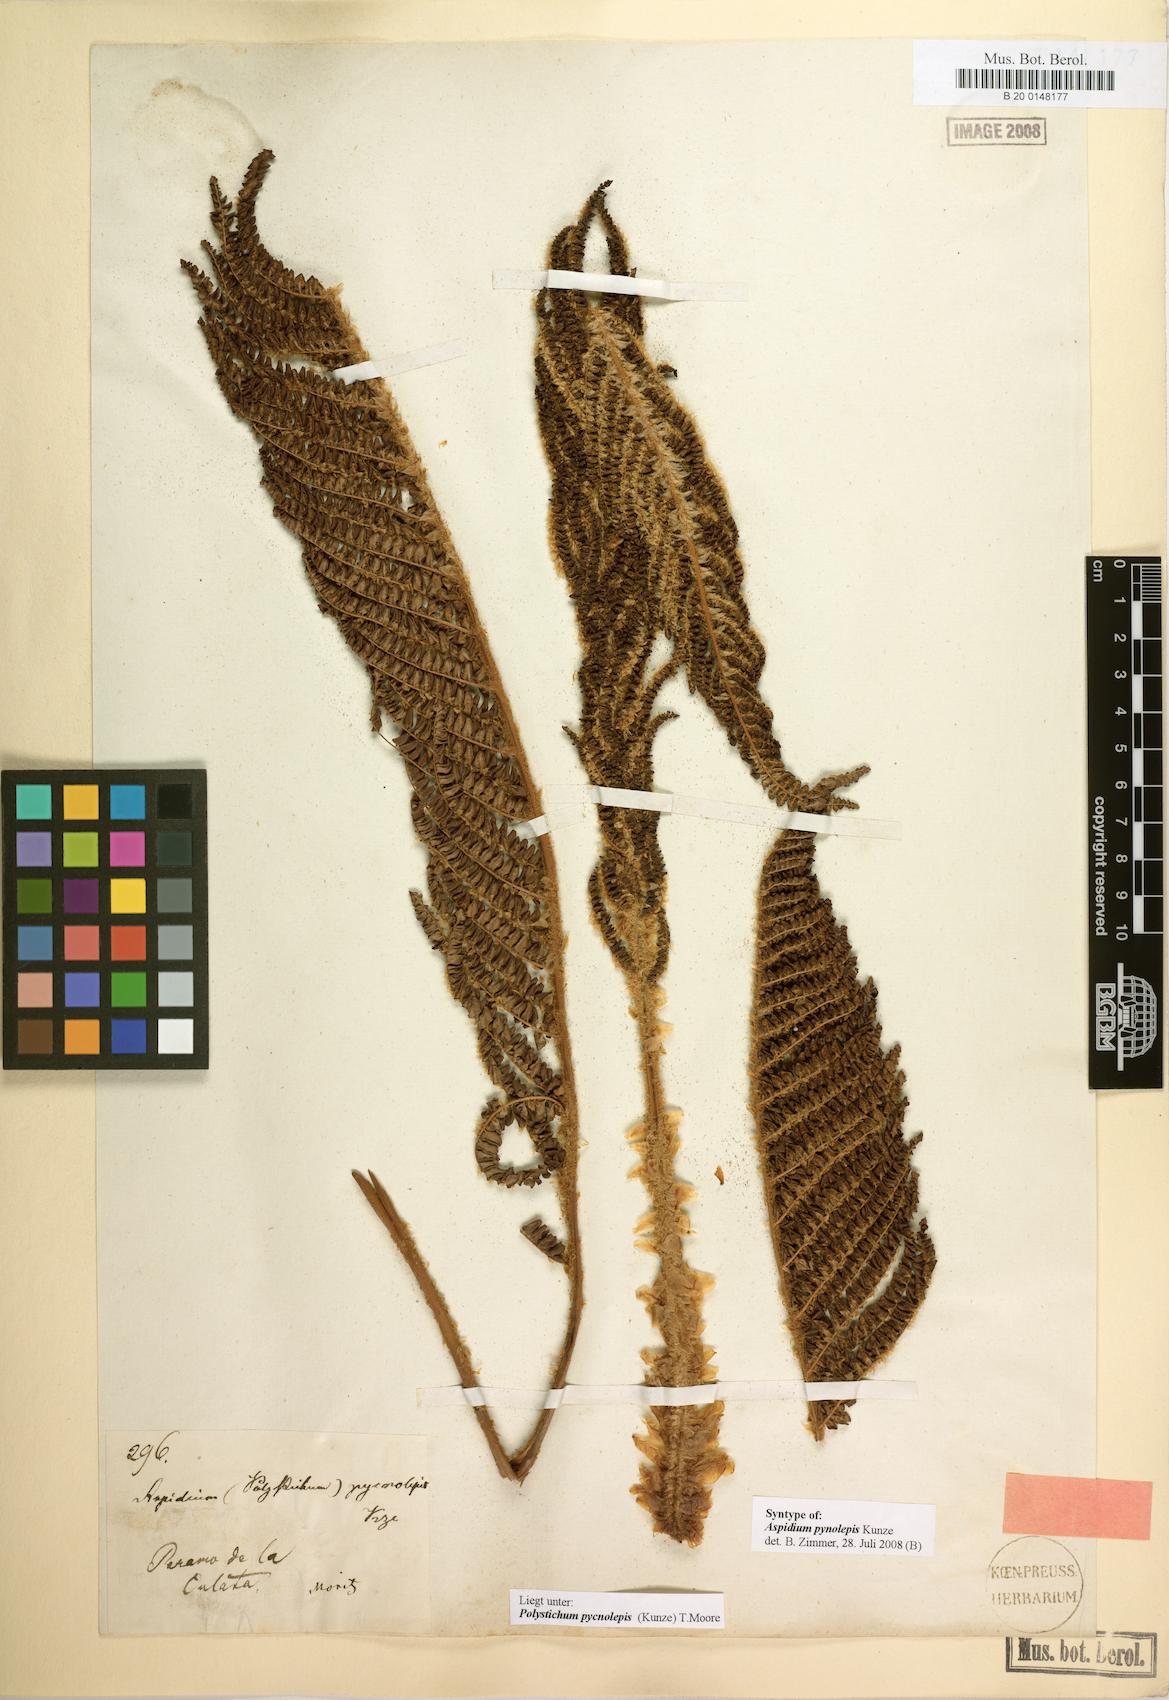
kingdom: Plantae
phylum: Tracheophyta
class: Polypodiopsida
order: Polypodiales
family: Dryopteridaceae
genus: Polystichum
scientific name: Polystichum pycnolepis
